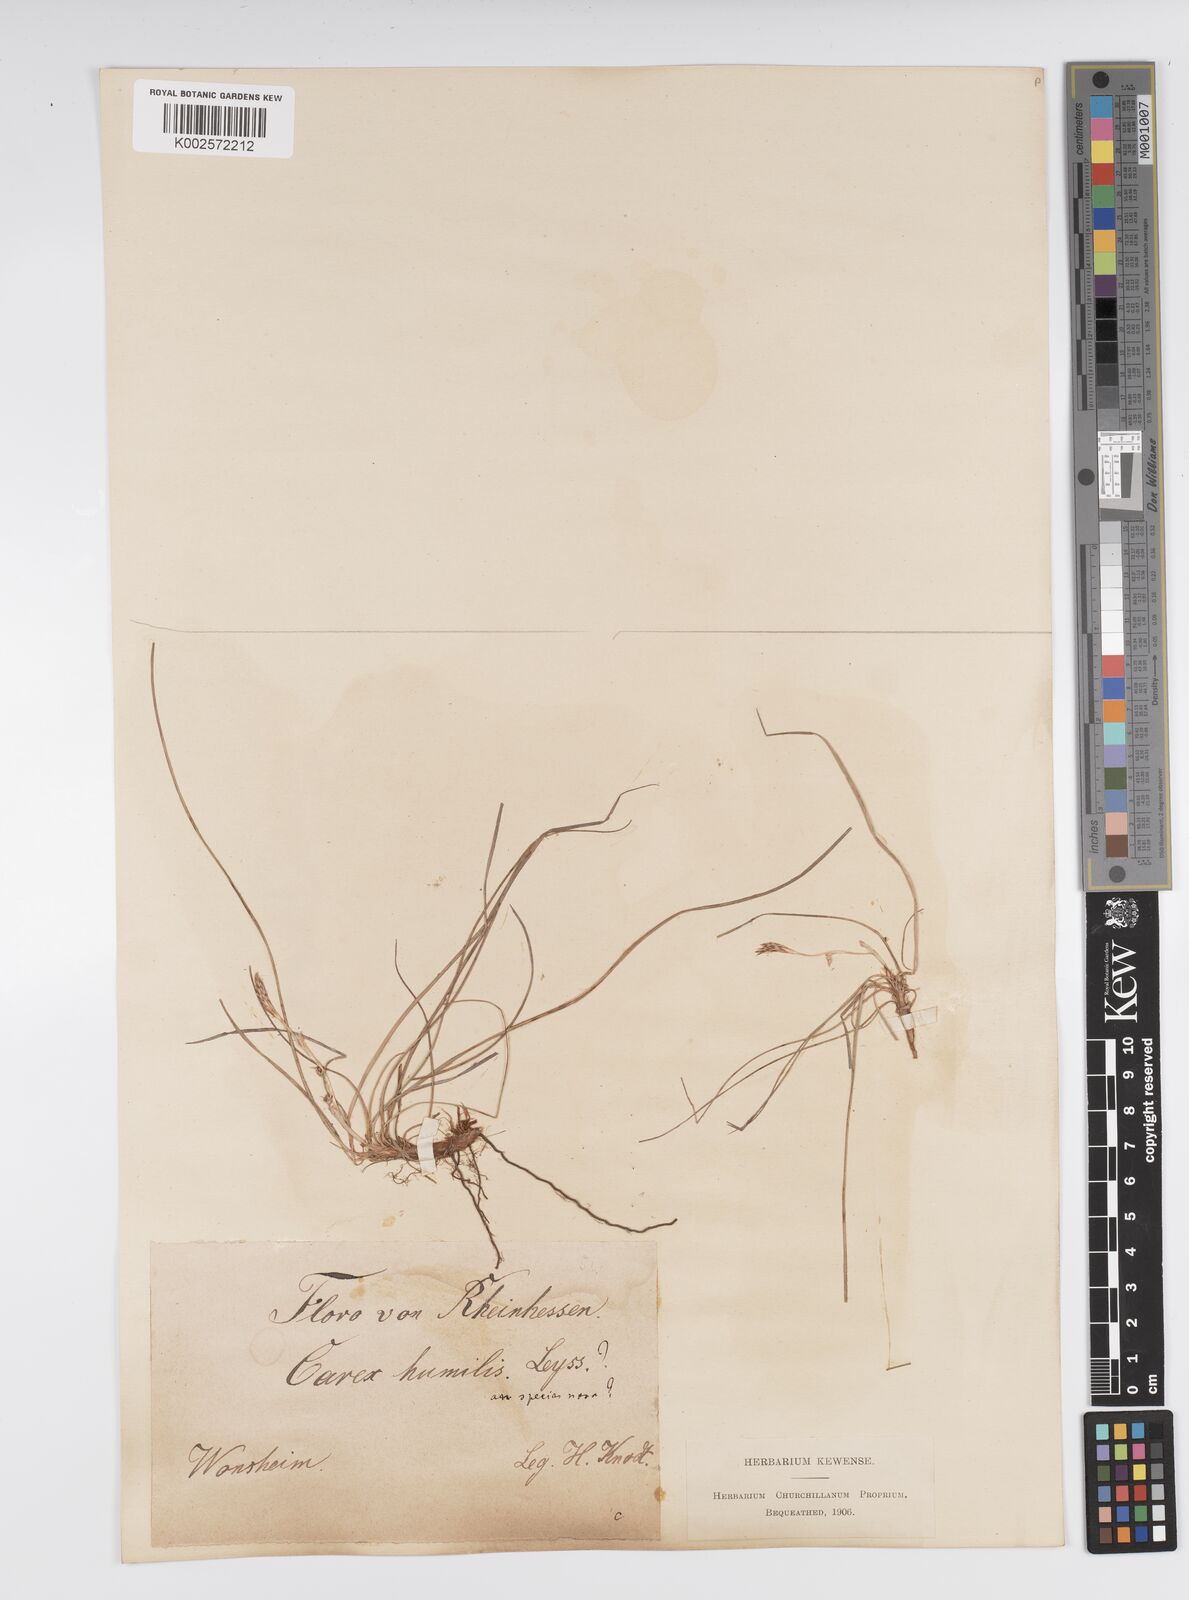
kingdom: Plantae
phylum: Tracheophyta
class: Liliopsida
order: Poales
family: Cyperaceae
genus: Carex
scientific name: Carex humilis
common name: Dwarf sedge
